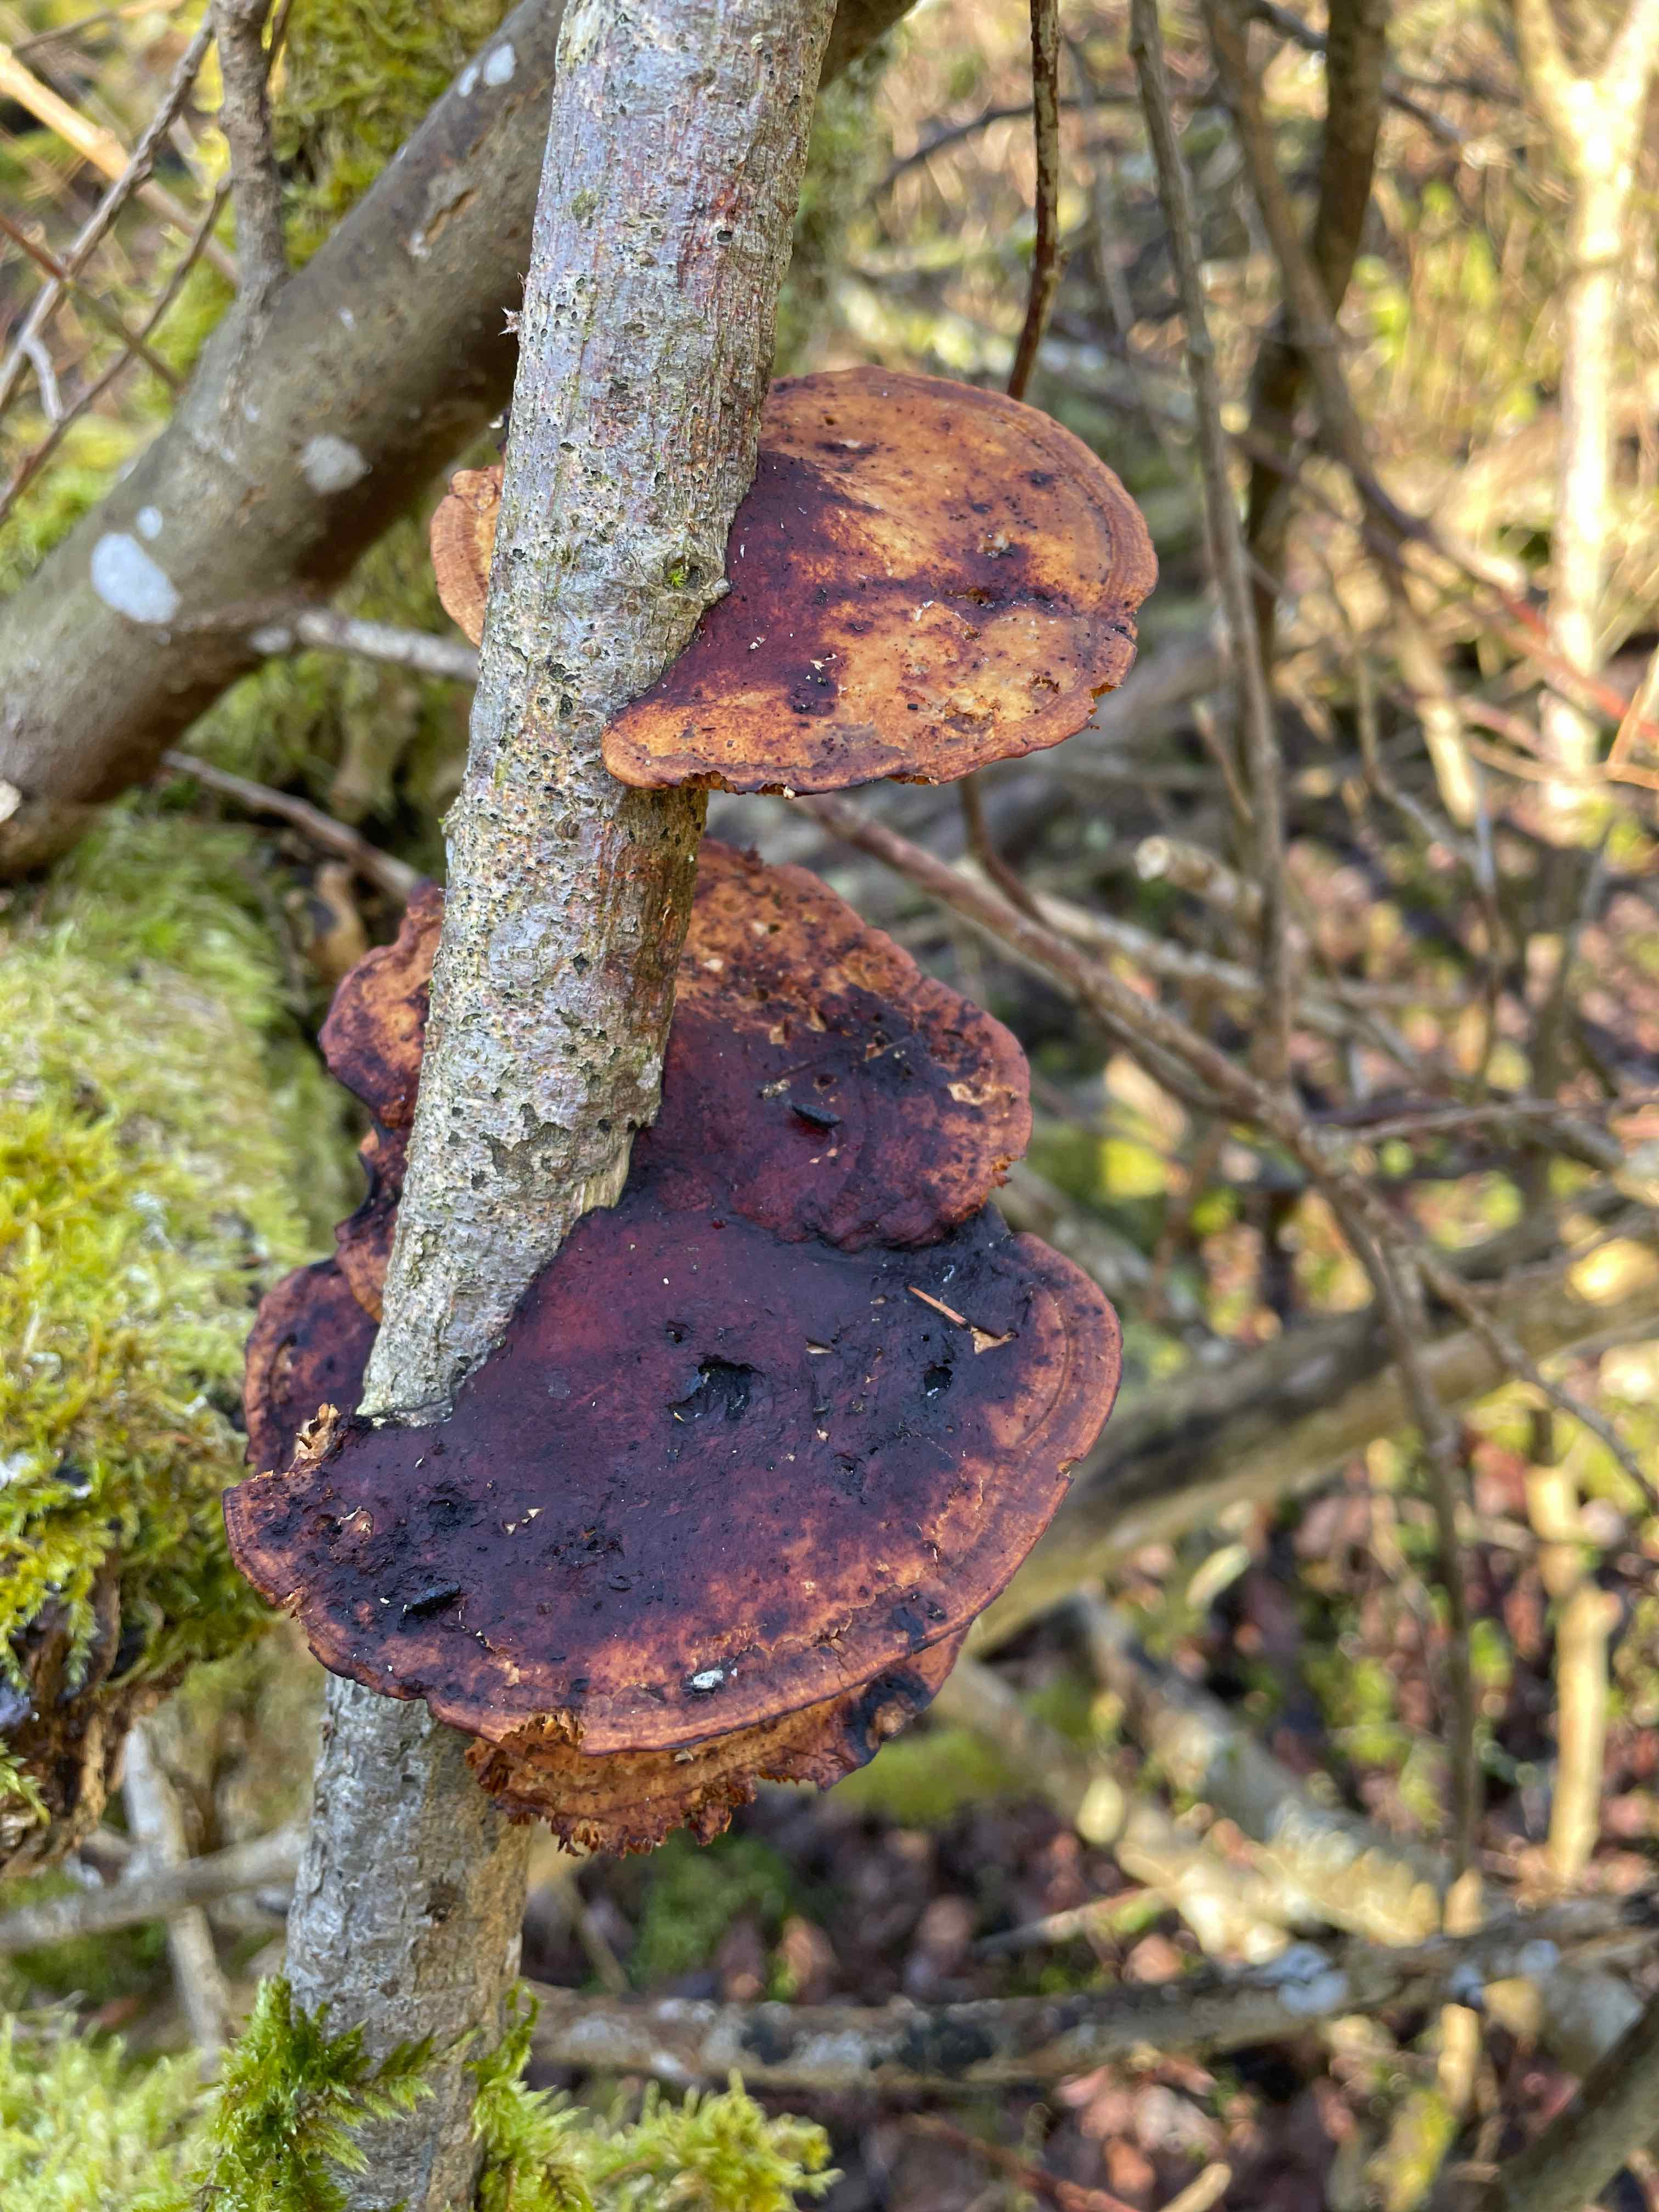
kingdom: Fungi
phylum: Basidiomycota
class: Agaricomycetes
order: Polyporales
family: Polyporaceae
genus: Daedaleopsis
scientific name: Daedaleopsis confragosa
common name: rødmende læderporesvamp
